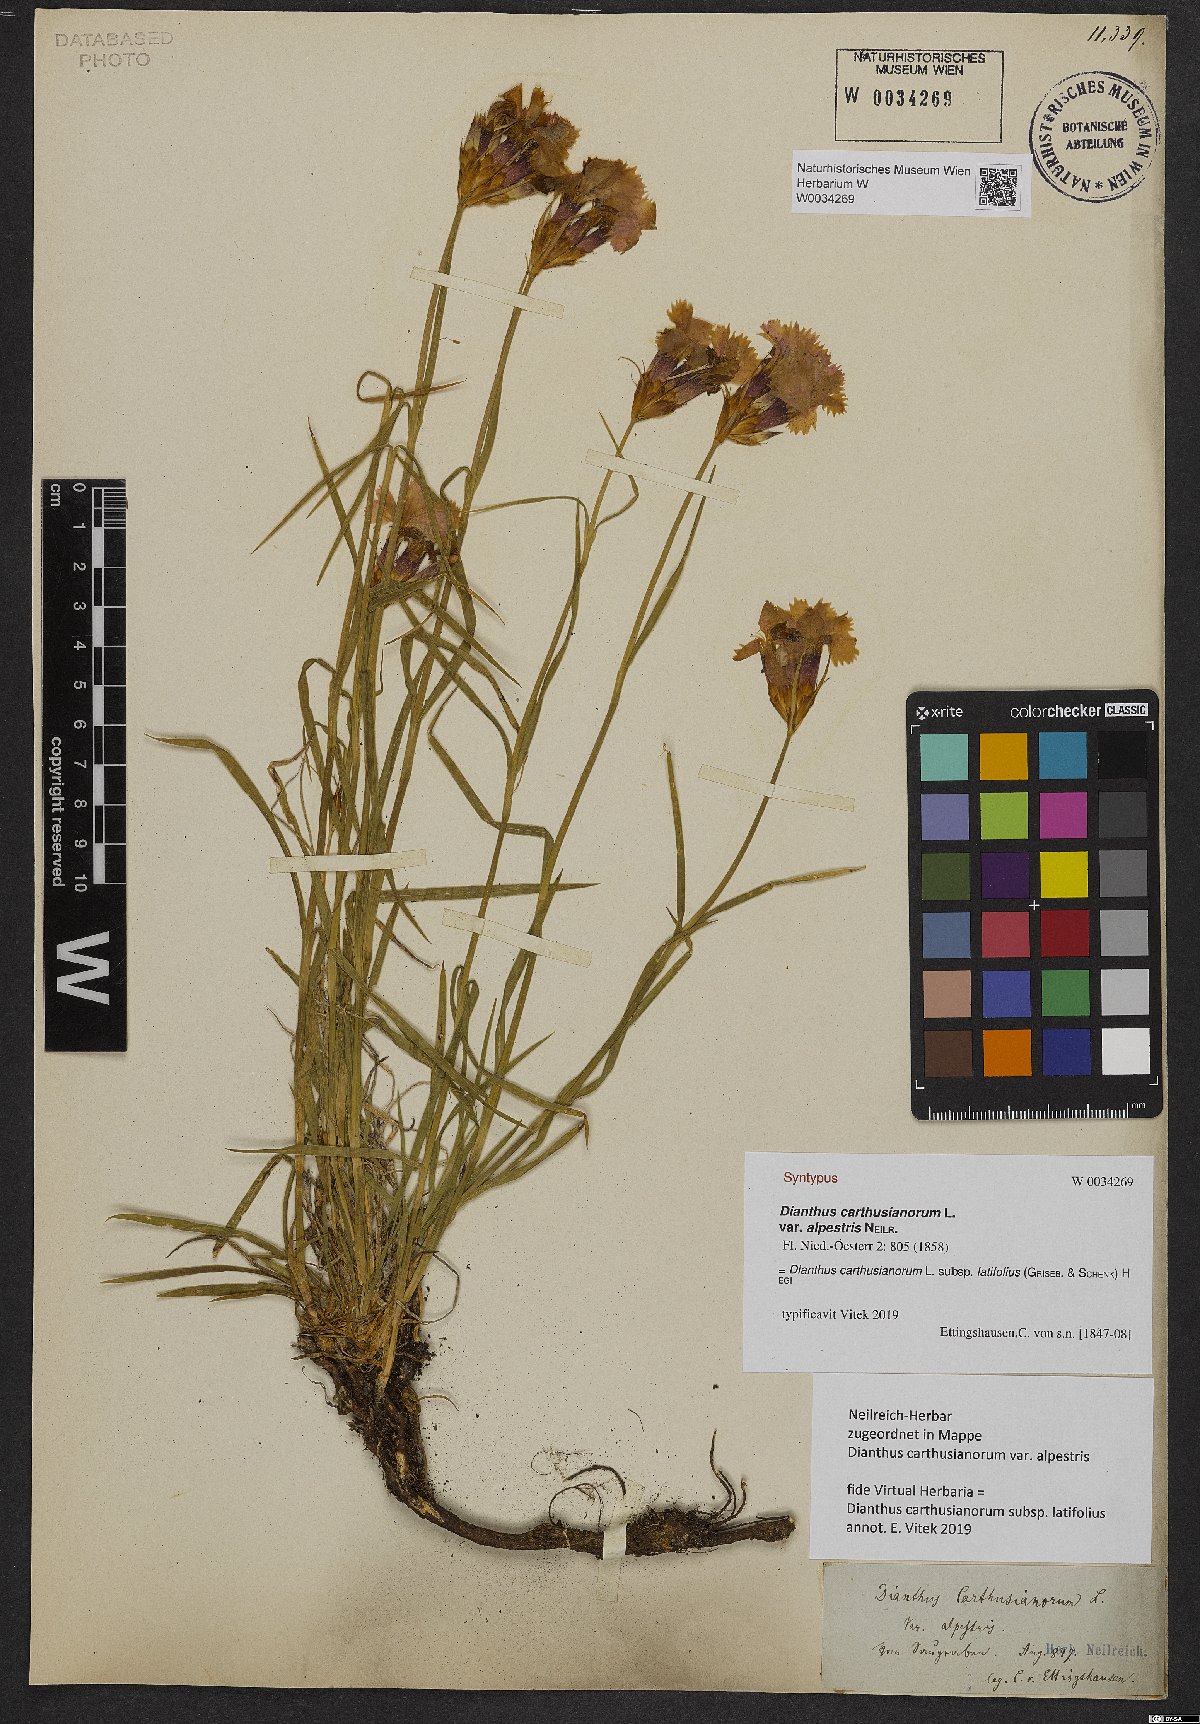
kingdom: Plantae
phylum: Tracheophyta
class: Magnoliopsida
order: Caryophyllales
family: Caryophyllaceae
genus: Dianthus
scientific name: Dianthus carthusianorum
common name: Carthusian pink
